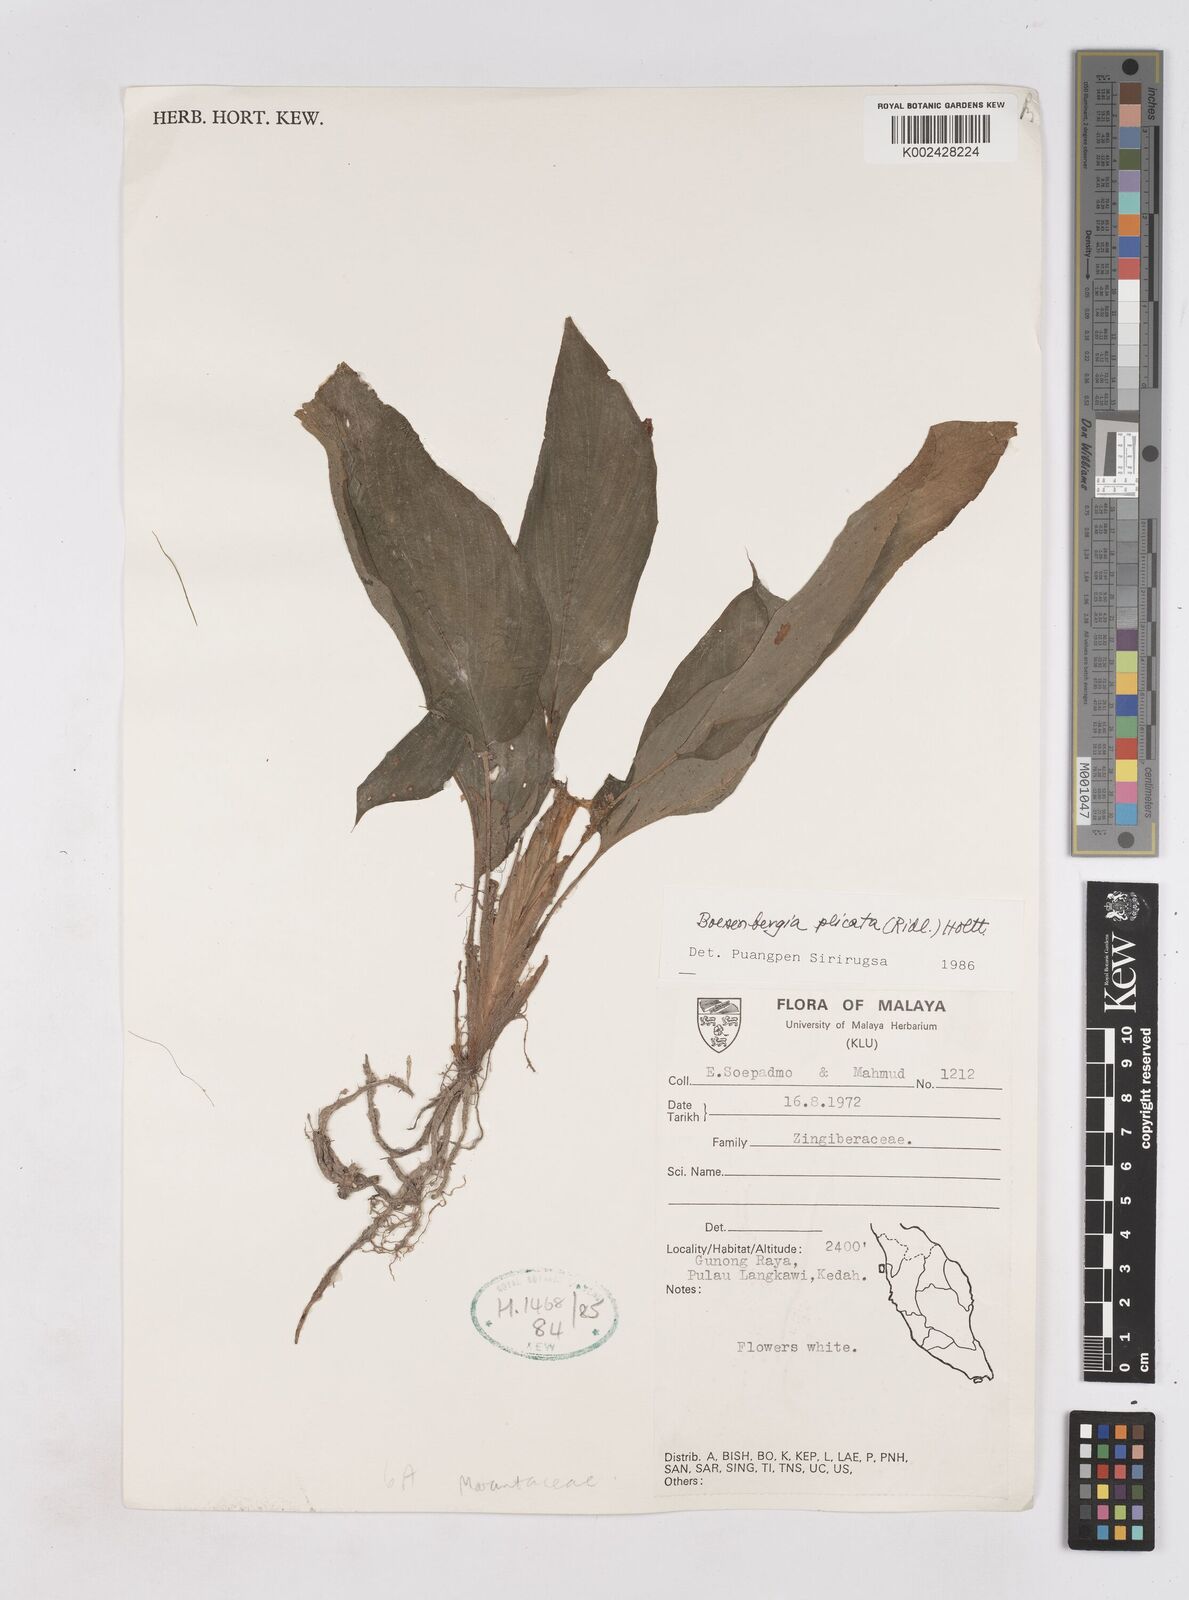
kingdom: Plantae
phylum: Tracheophyta
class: Liliopsida
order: Zingiberales
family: Zingiberaceae
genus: Boesenbergia
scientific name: Boesenbergia plicata
